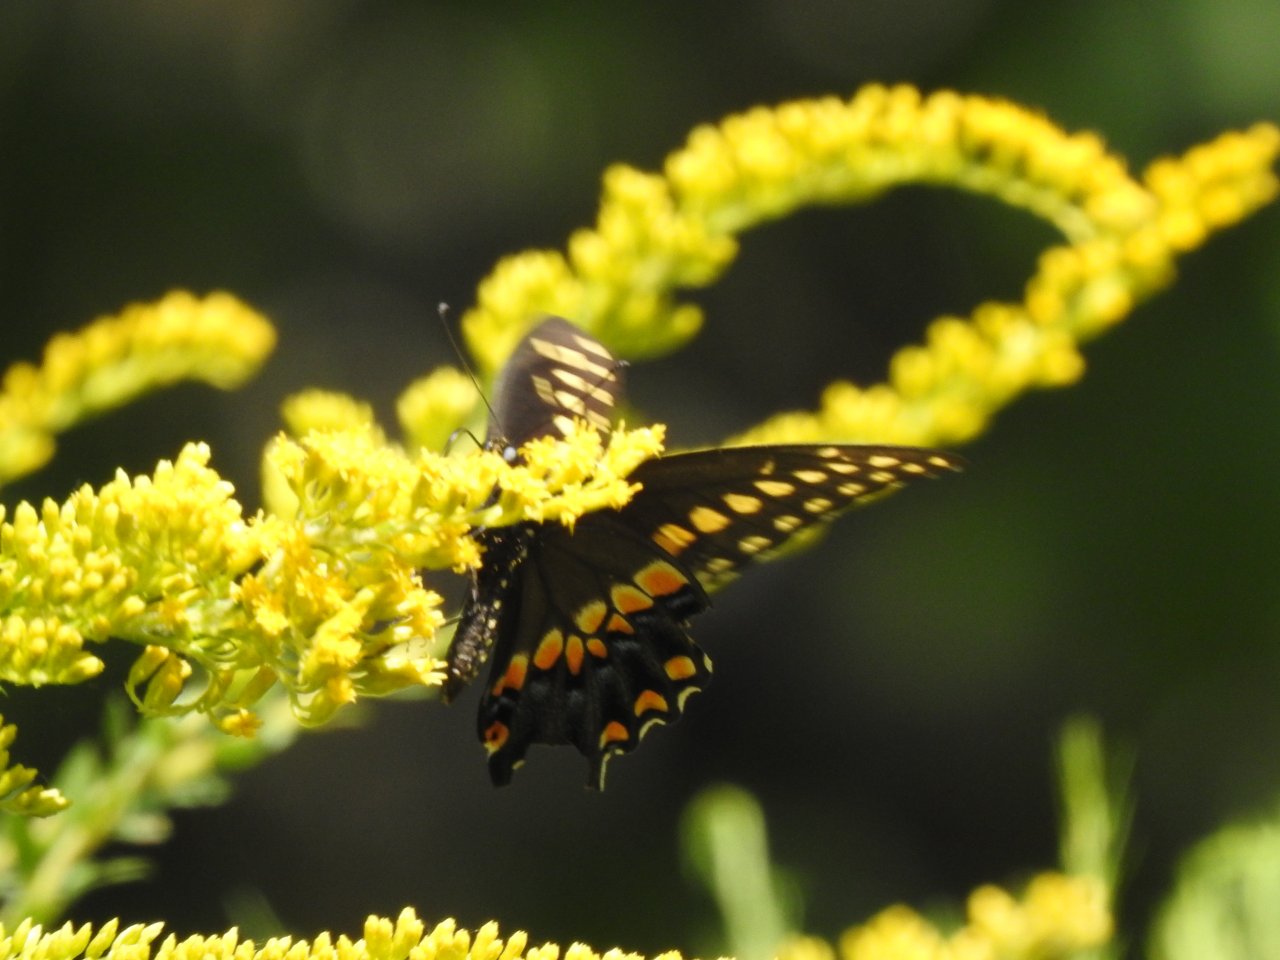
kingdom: Animalia
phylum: Arthropoda
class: Insecta
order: Lepidoptera
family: Papilionidae
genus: Papilio
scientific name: Papilio polyxenes
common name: Black Swallowtail
